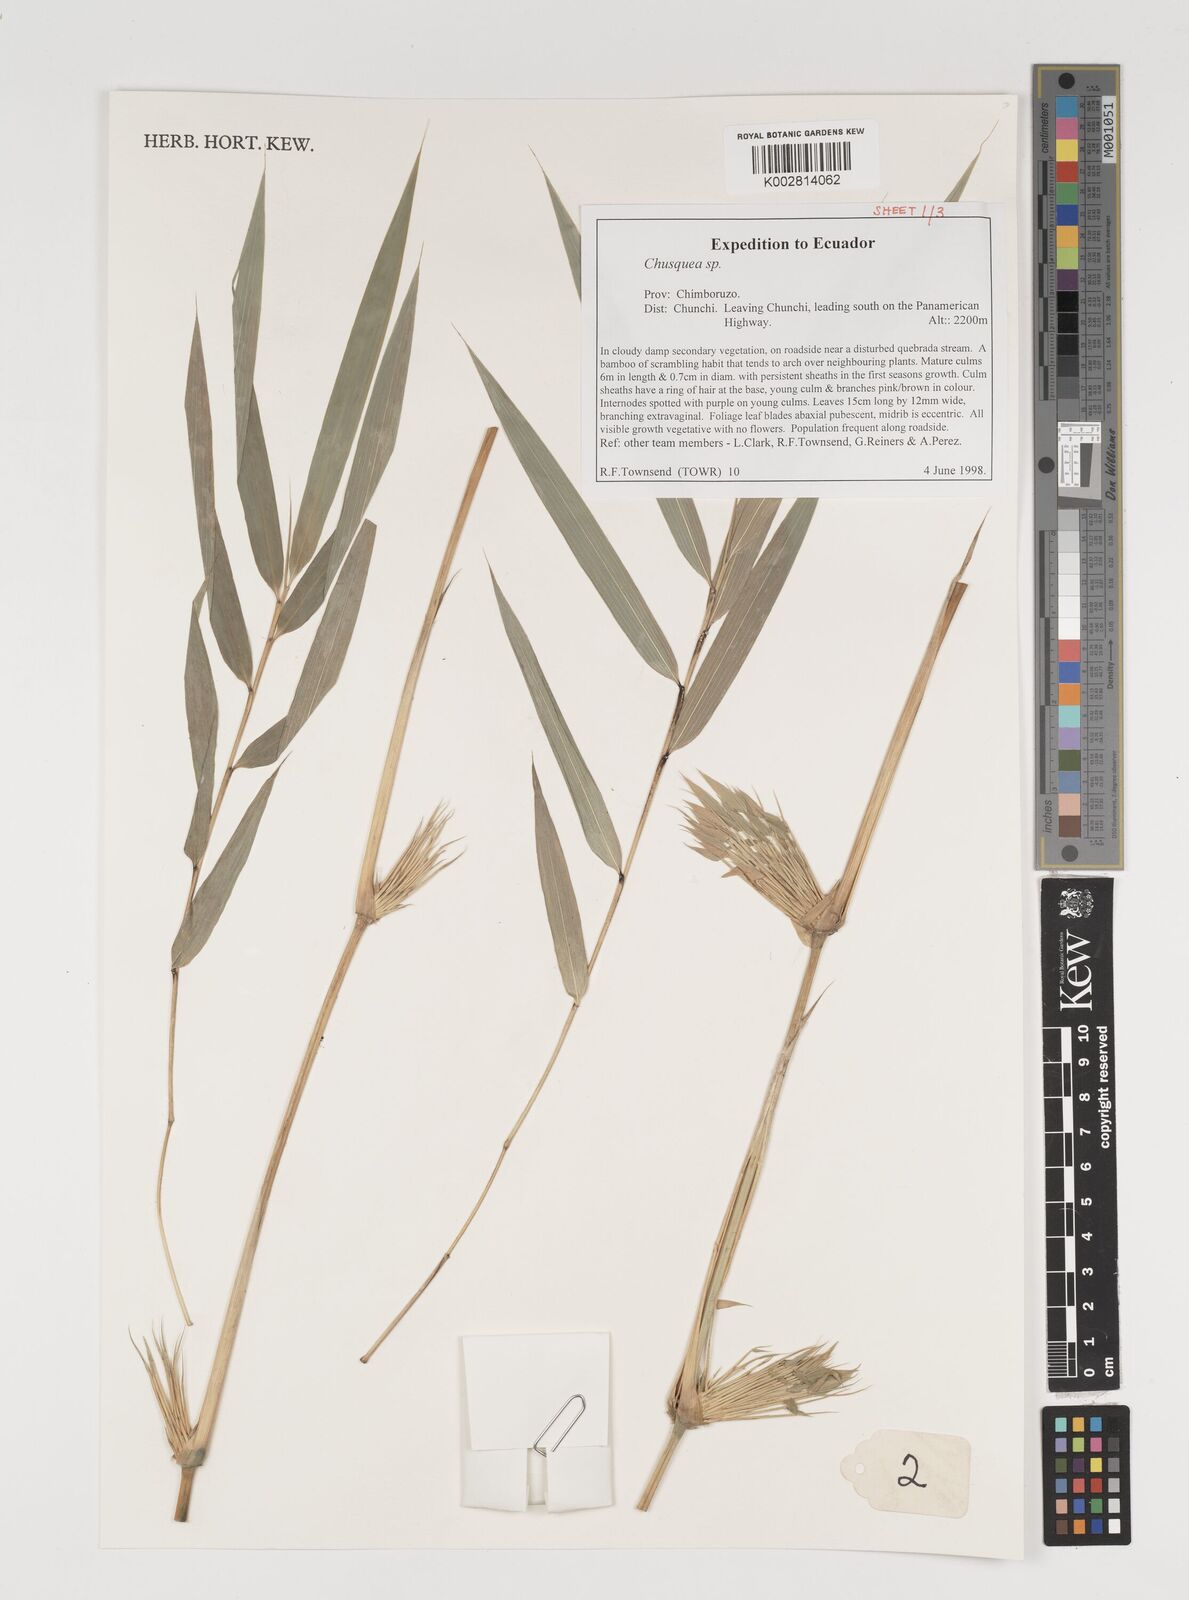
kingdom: Plantae
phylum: Tracheophyta
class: Liliopsida
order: Poales
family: Poaceae
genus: Chusquea
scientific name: Chusquea
